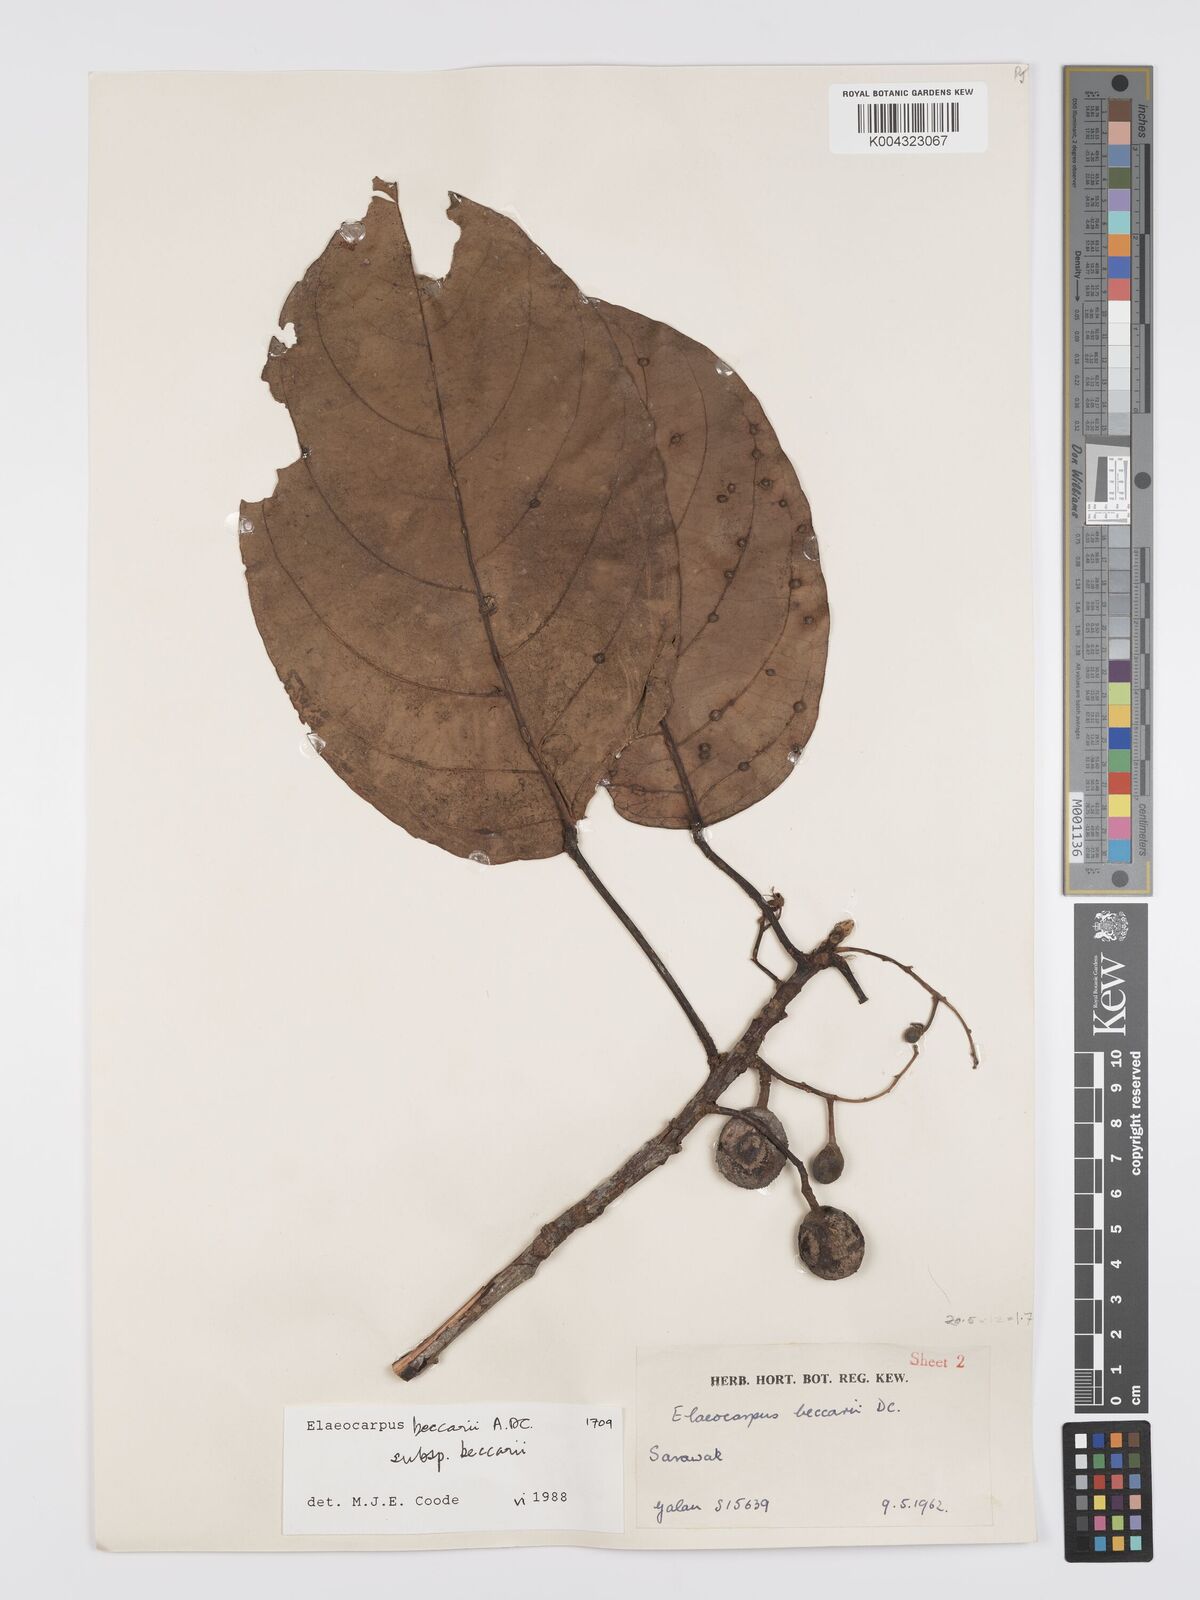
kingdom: Plantae
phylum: Tracheophyta
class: Magnoliopsida
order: Oxalidales
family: Elaeocarpaceae
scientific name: Elaeocarpaceae
